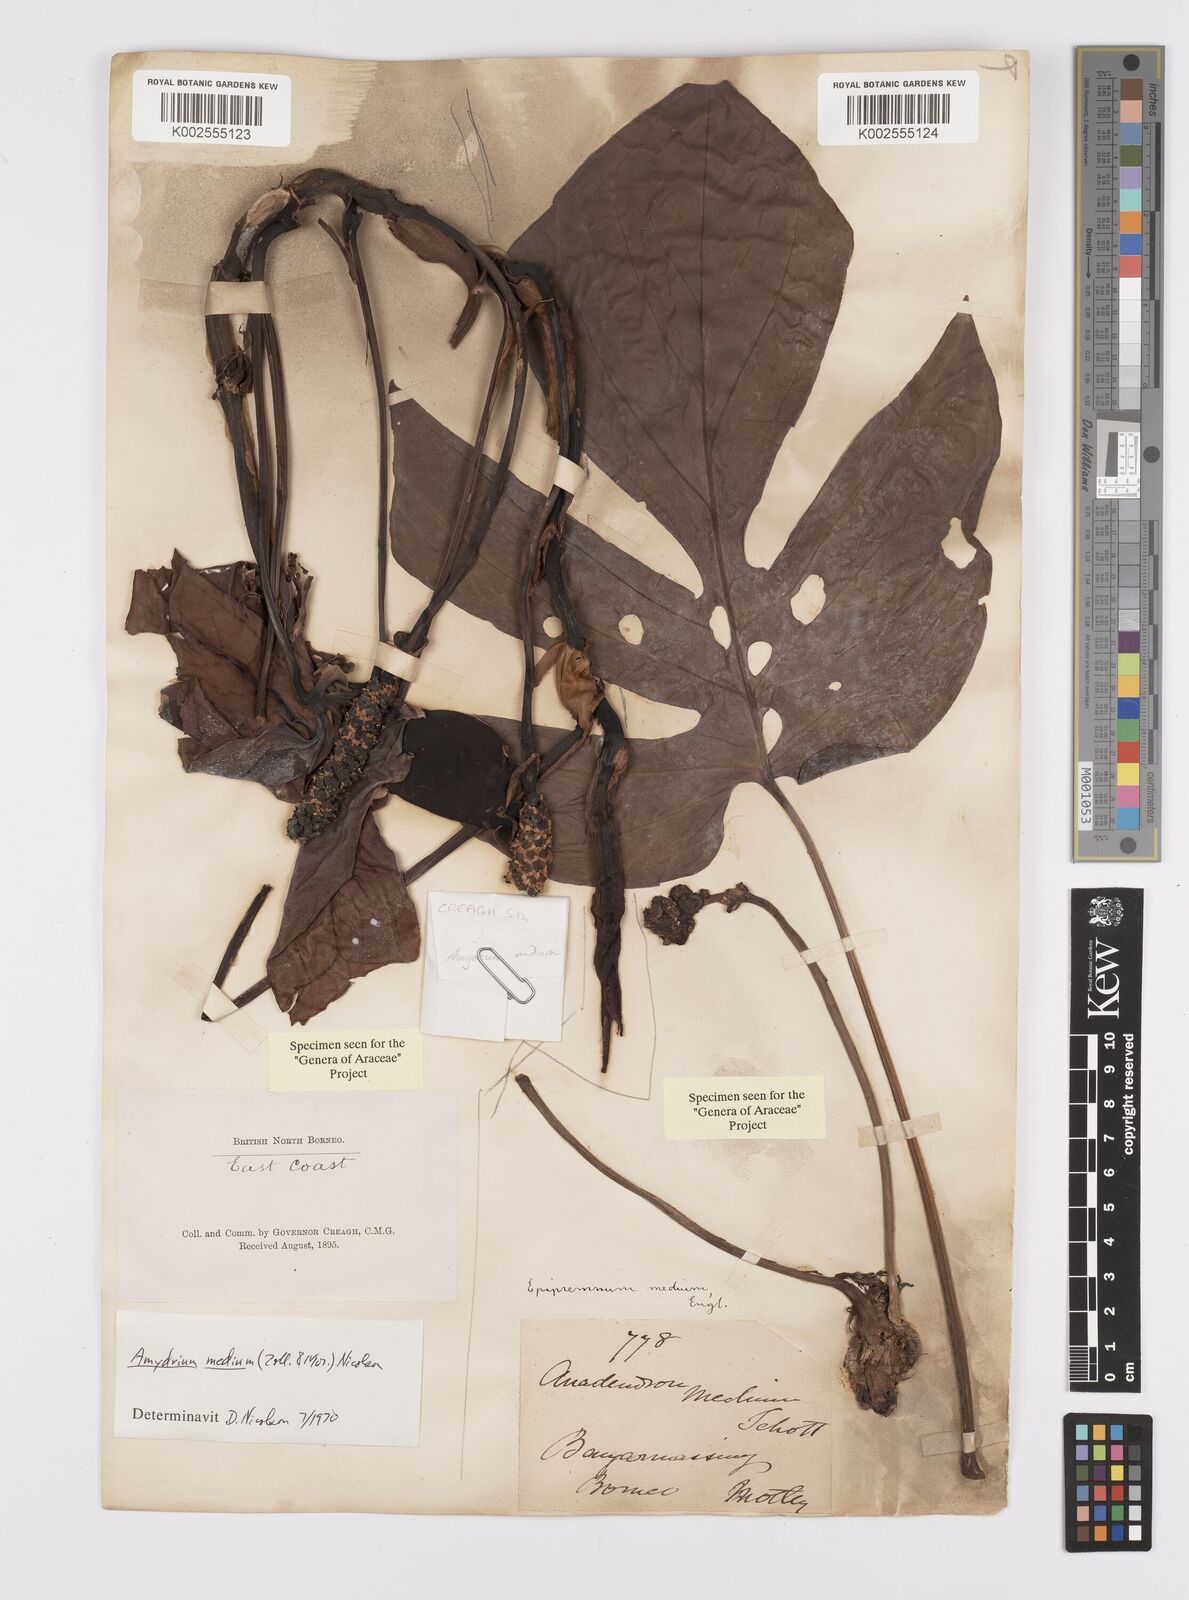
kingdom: Plantae
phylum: Tracheophyta
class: Liliopsida
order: Alismatales
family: Araceae
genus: Amydrium
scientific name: Amydrium medium
